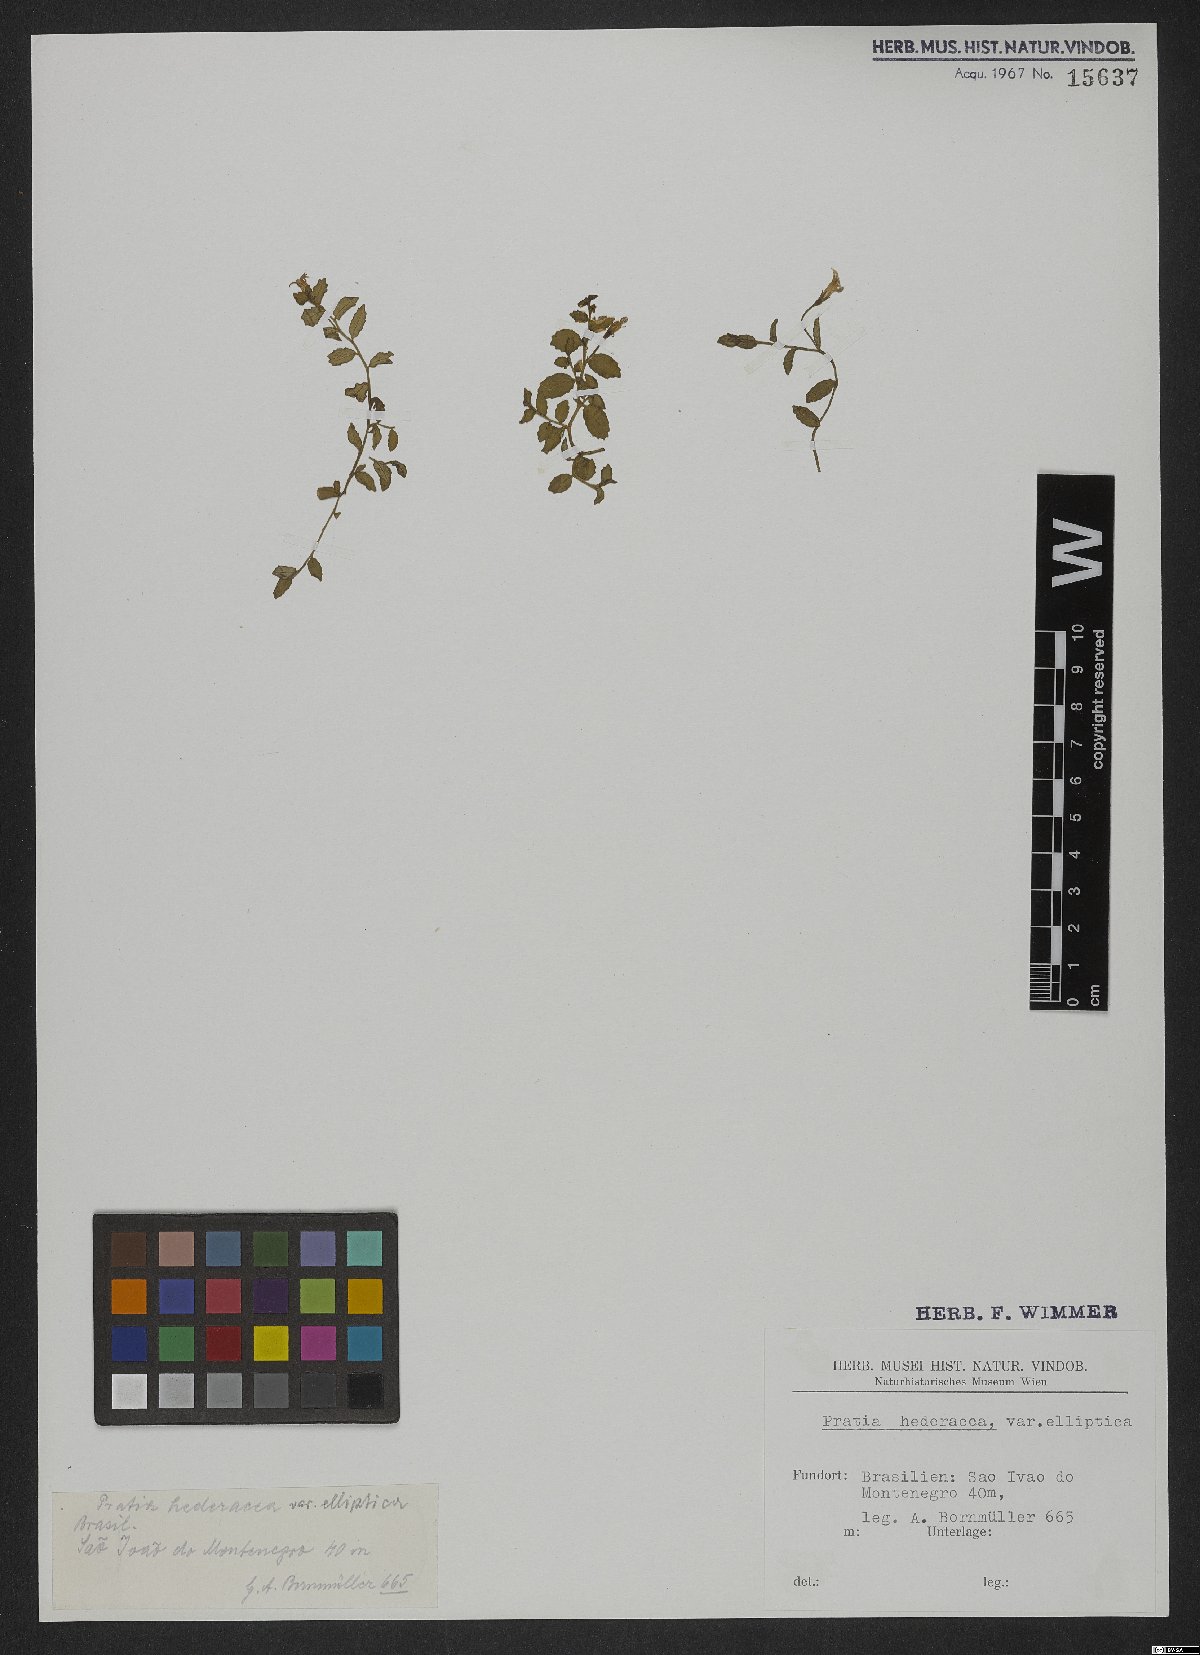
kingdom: Plantae
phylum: Tracheophyta
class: Magnoliopsida
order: Asterales
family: Campanulaceae
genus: Lobelia
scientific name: Lobelia hederacea
